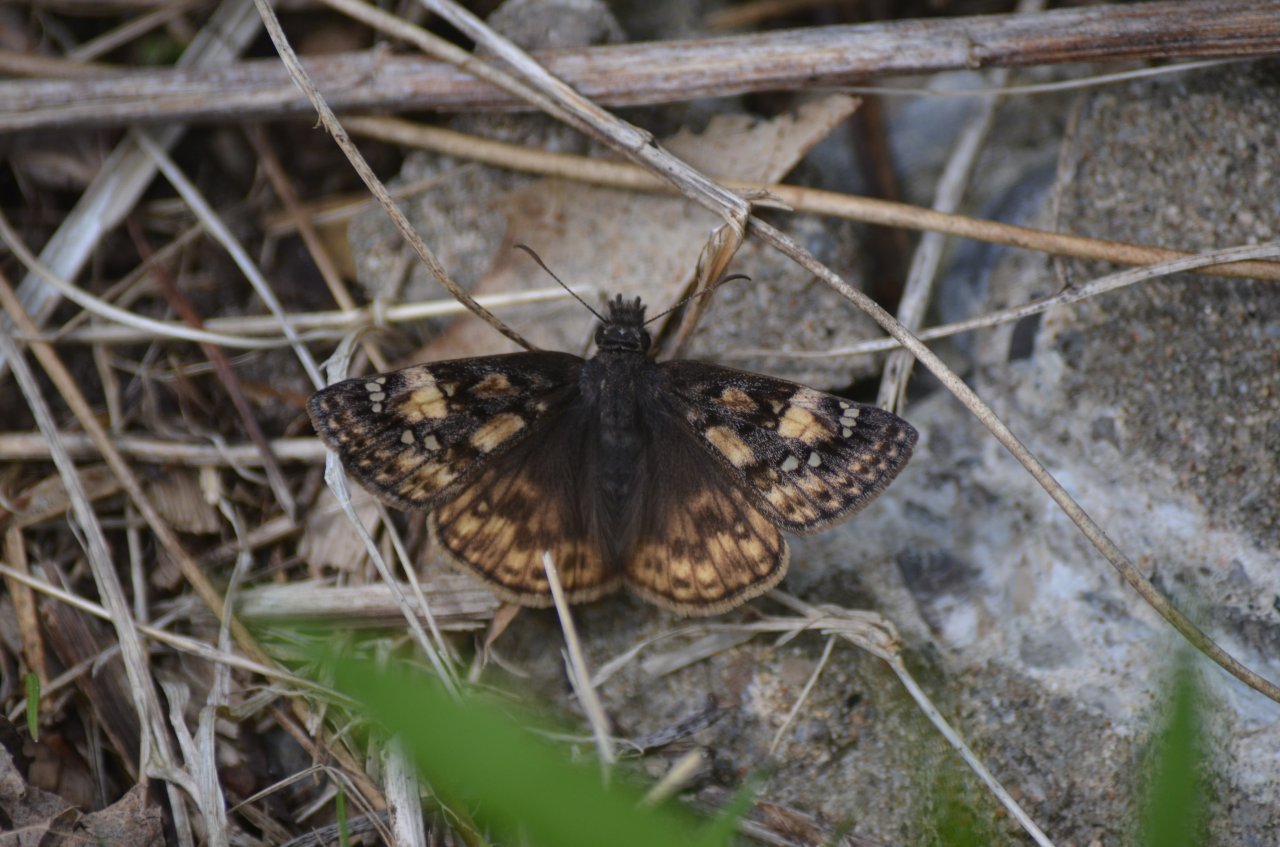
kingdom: Animalia
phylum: Arthropoda
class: Insecta
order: Lepidoptera
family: Hesperiidae
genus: Gesta
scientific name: Gesta
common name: Juvenal's Duskywing
